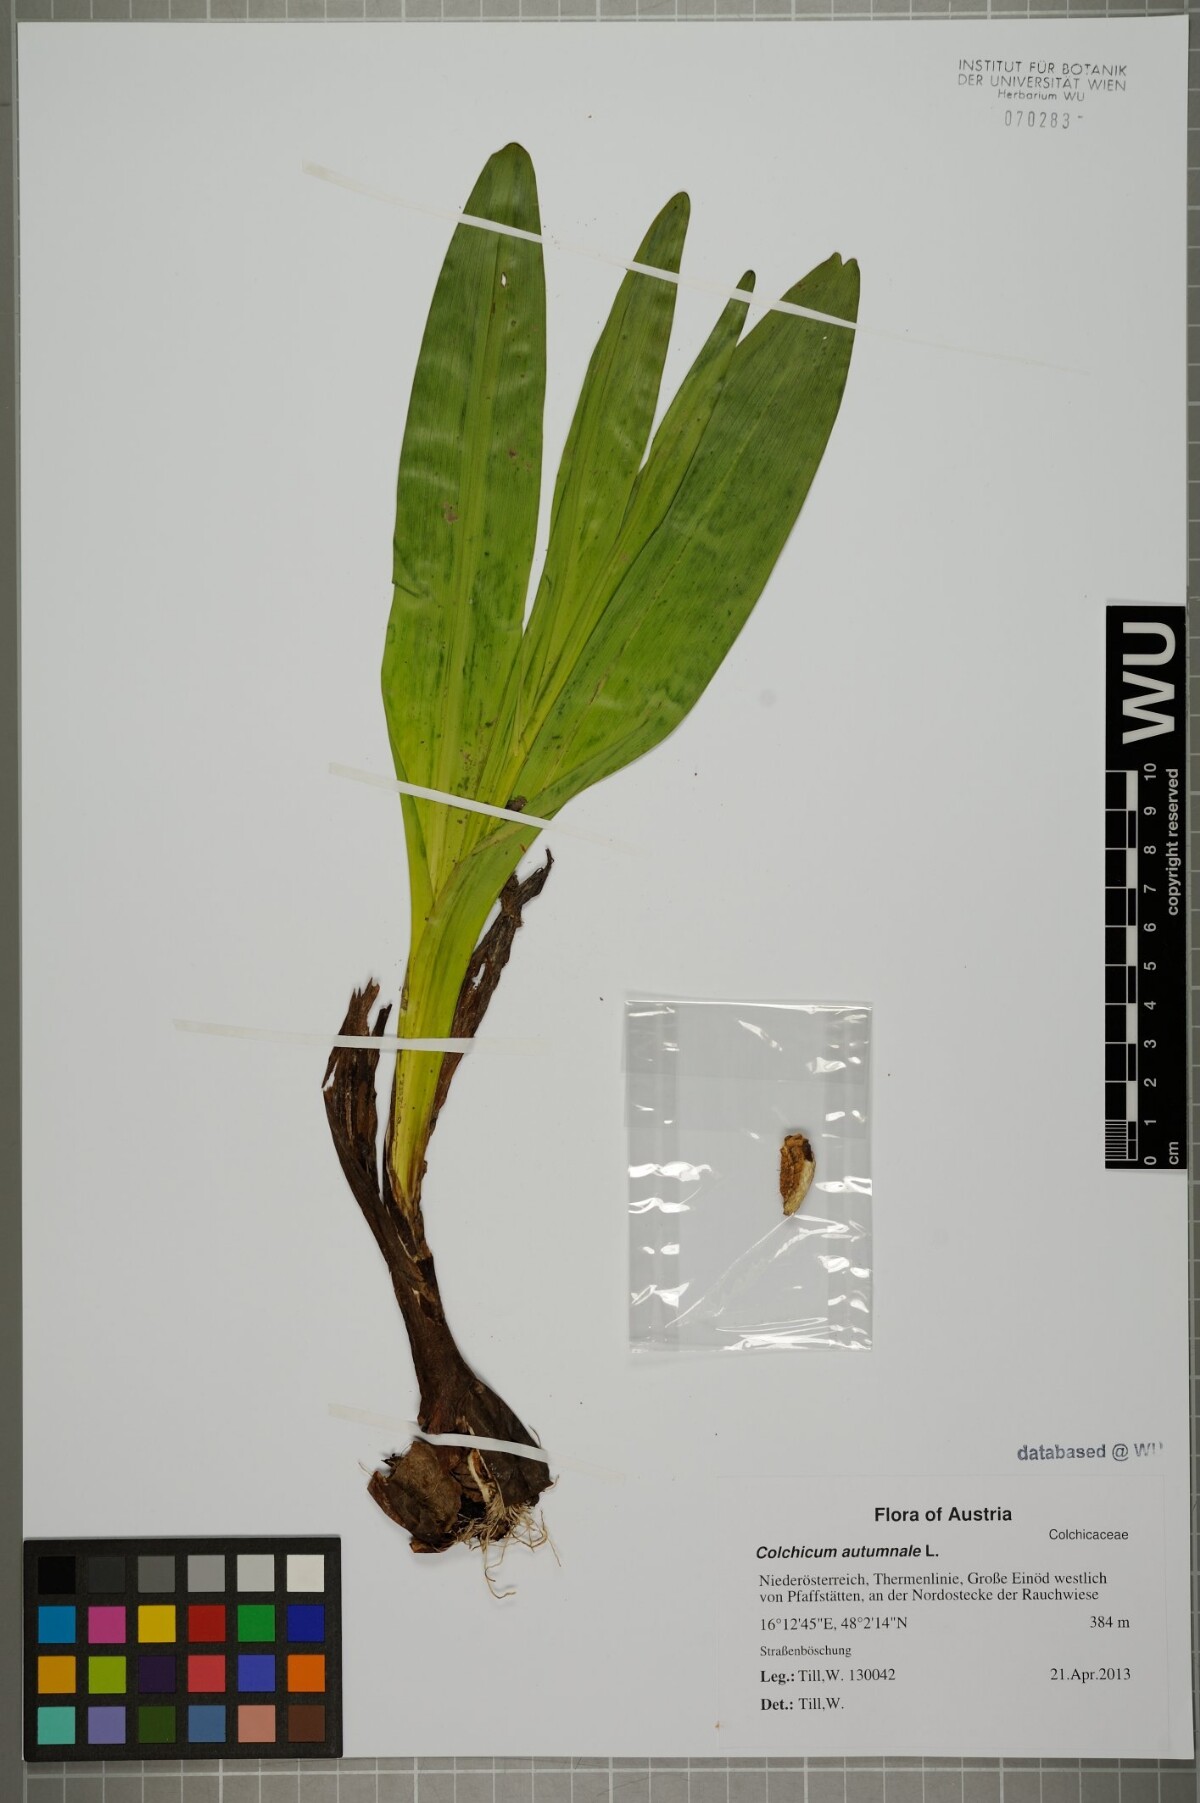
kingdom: Plantae
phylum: Tracheophyta
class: Liliopsida
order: Liliales
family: Colchicaceae
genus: Colchicum
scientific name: Colchicum autumnale
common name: Autumn crocus
